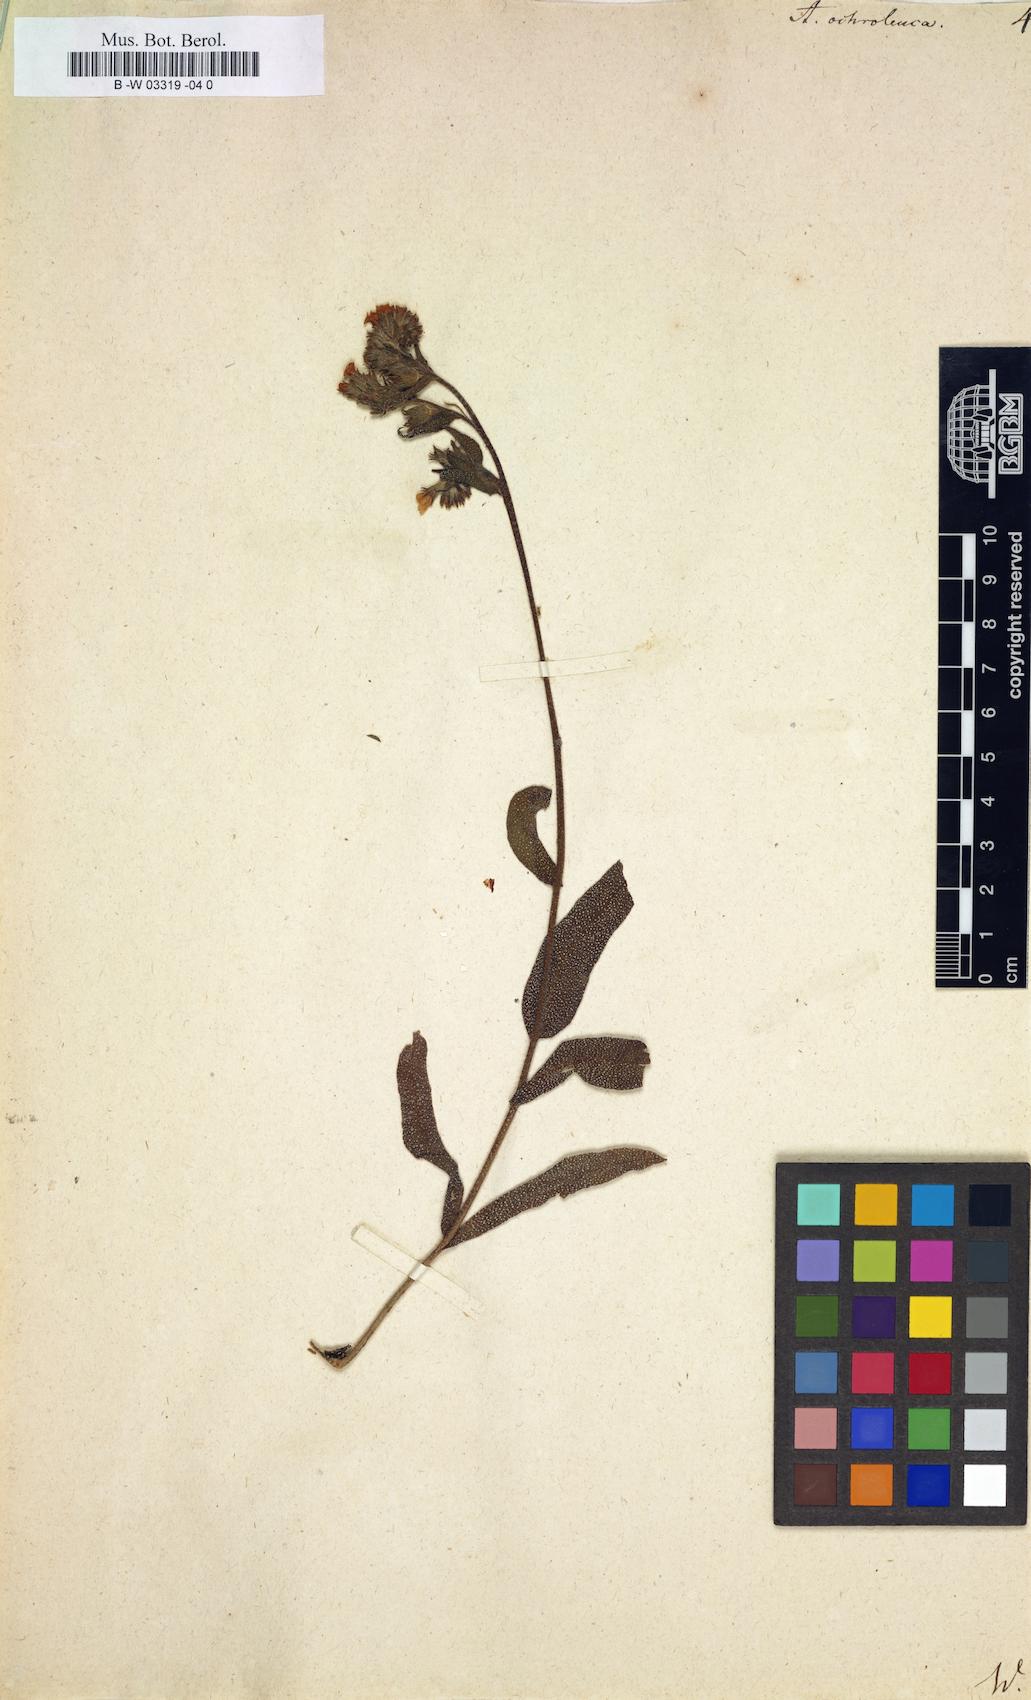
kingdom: Plantae
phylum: Tracheophyta
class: Magnoliopsida
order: Boraginales
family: Boraginaceae
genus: Anchusa
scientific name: Anchusa ochroleuca
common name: Yellow alkanet
